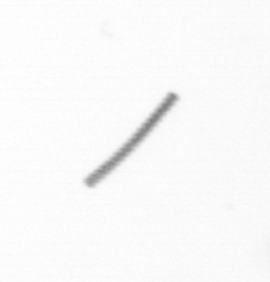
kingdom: Chromista
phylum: Ochrophyta
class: Bacillariophyceae
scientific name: Bacillariophyceae
